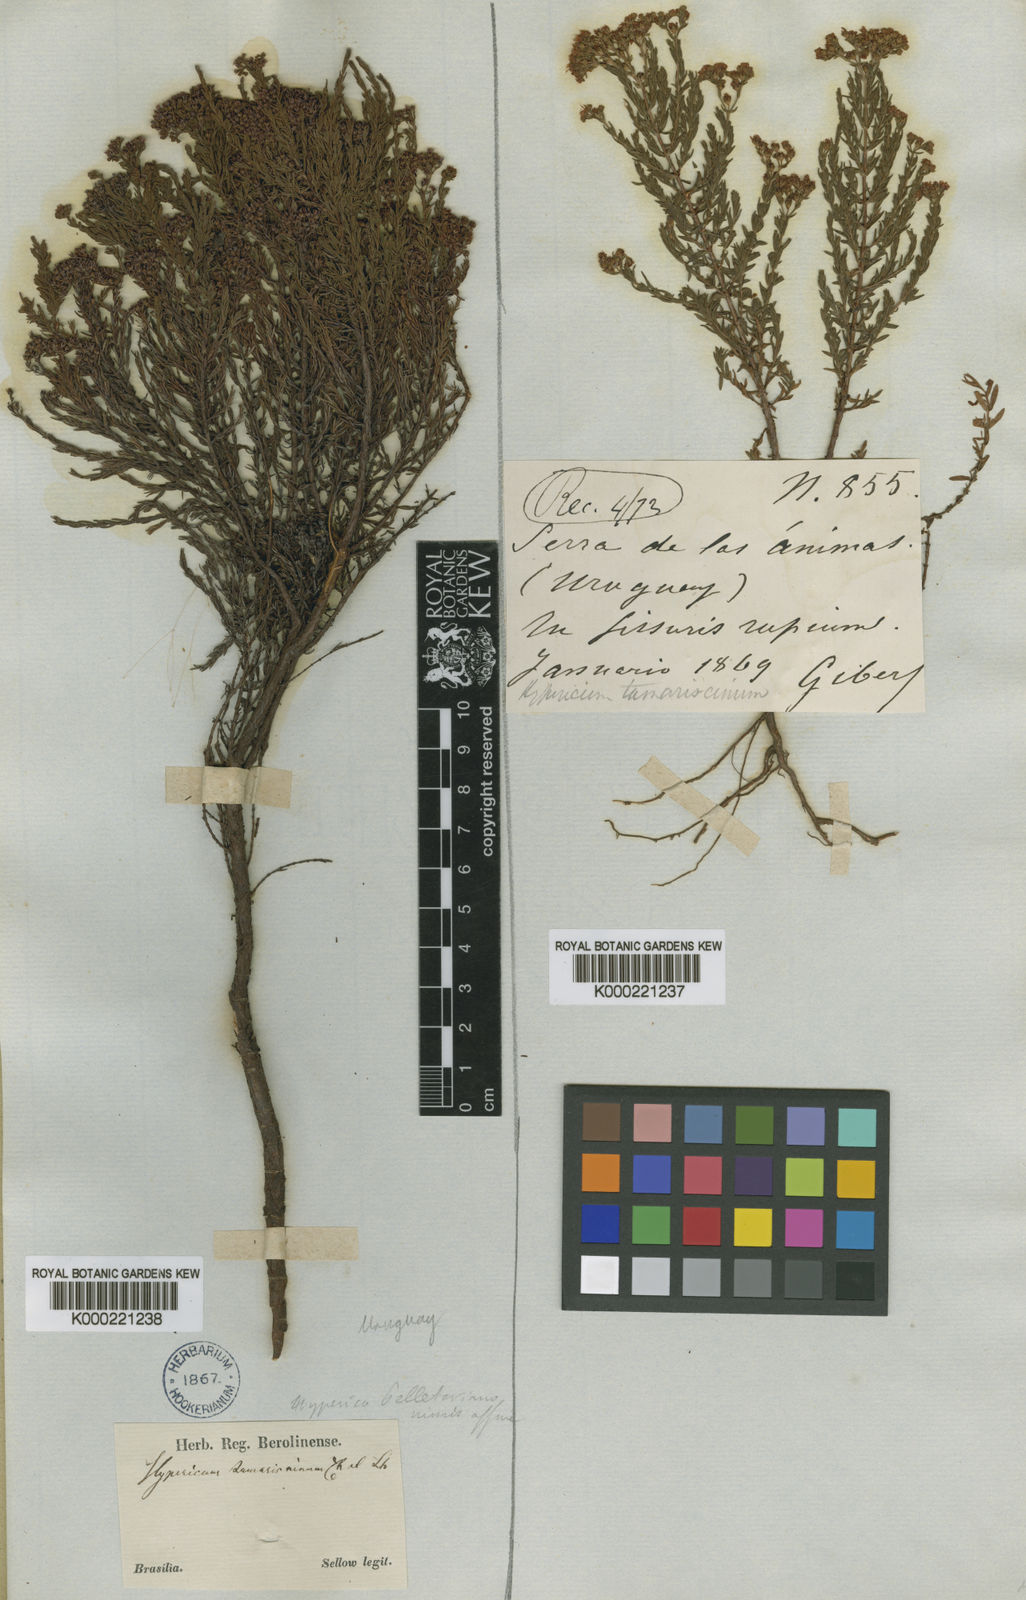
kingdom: Plantae
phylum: Tracheophyta
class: Magnoliopsida
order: Malpighiales
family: Hypericaceae
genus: Hypericum
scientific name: Hypericum myrianthum
